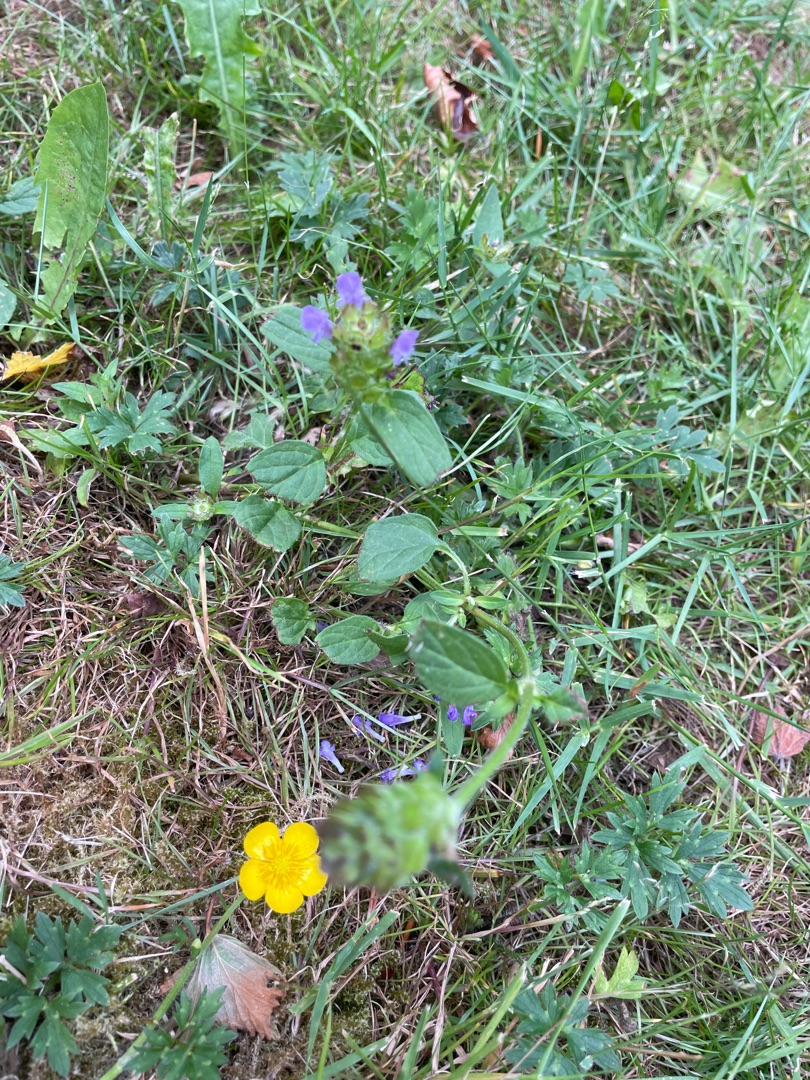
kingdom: Plantae
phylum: Tracheophyta
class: Magnoliopsida
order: Lamiales
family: Lamiaceae
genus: Prunella
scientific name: Prunella vulgaris
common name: Almindelig brunelle
